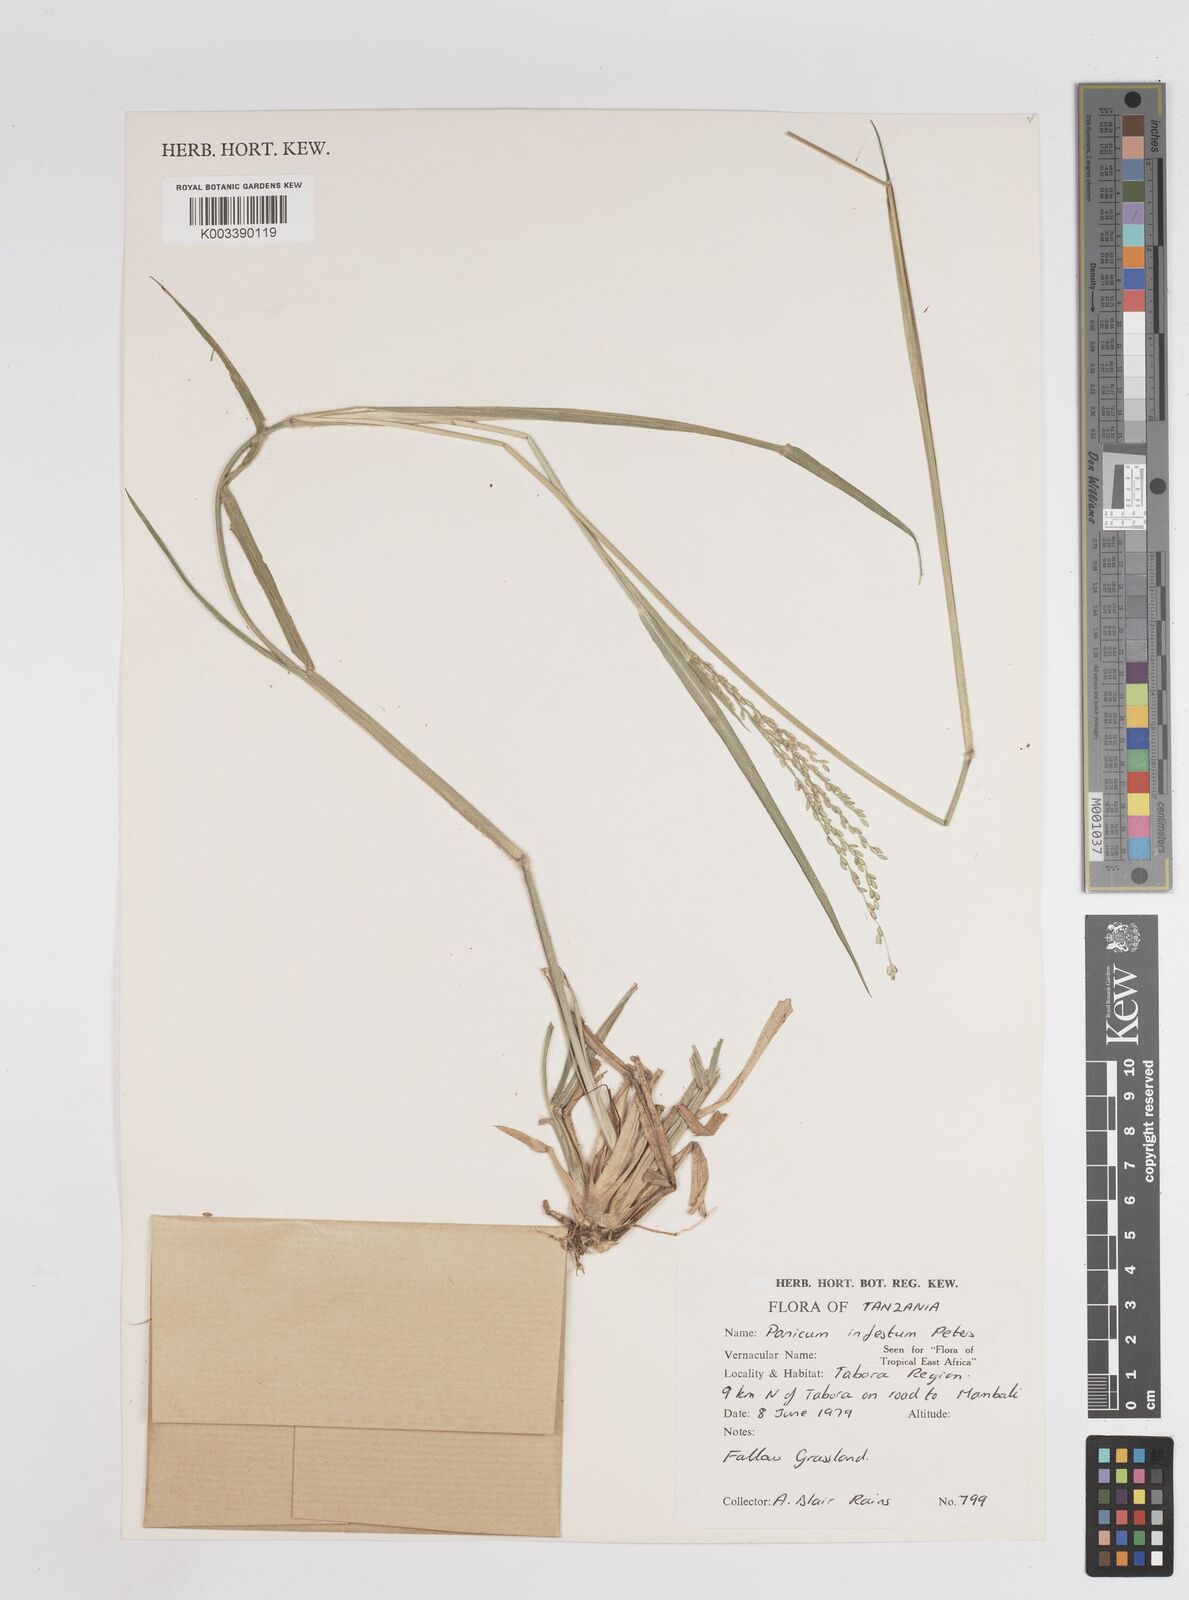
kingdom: Plantae
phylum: Tracheophyta
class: Liliopsida
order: Poales
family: Poaceae
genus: Megathyrsus
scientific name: Megathyrsus infestus
